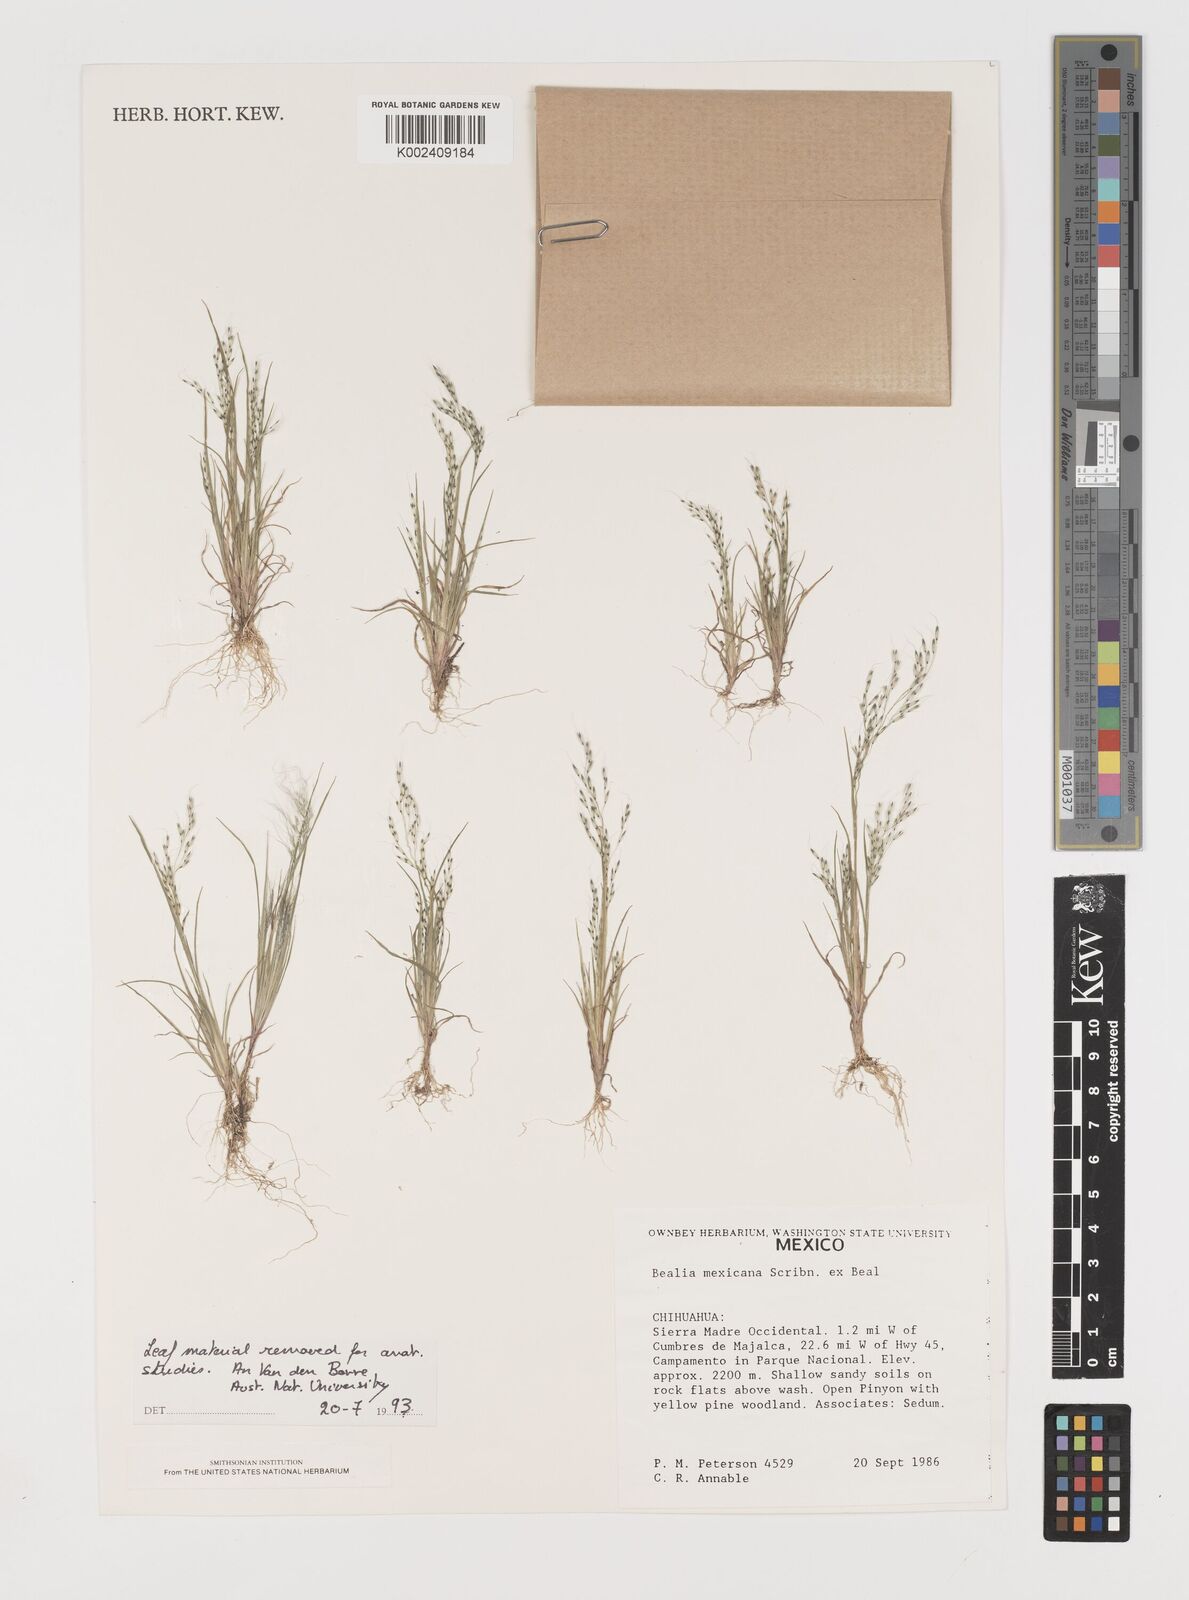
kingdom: Plantae
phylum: Tracheophyta
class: Liliopsida
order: Poales
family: Poaceae
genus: Muhlenbergia
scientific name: Muhlenbergia biloba
